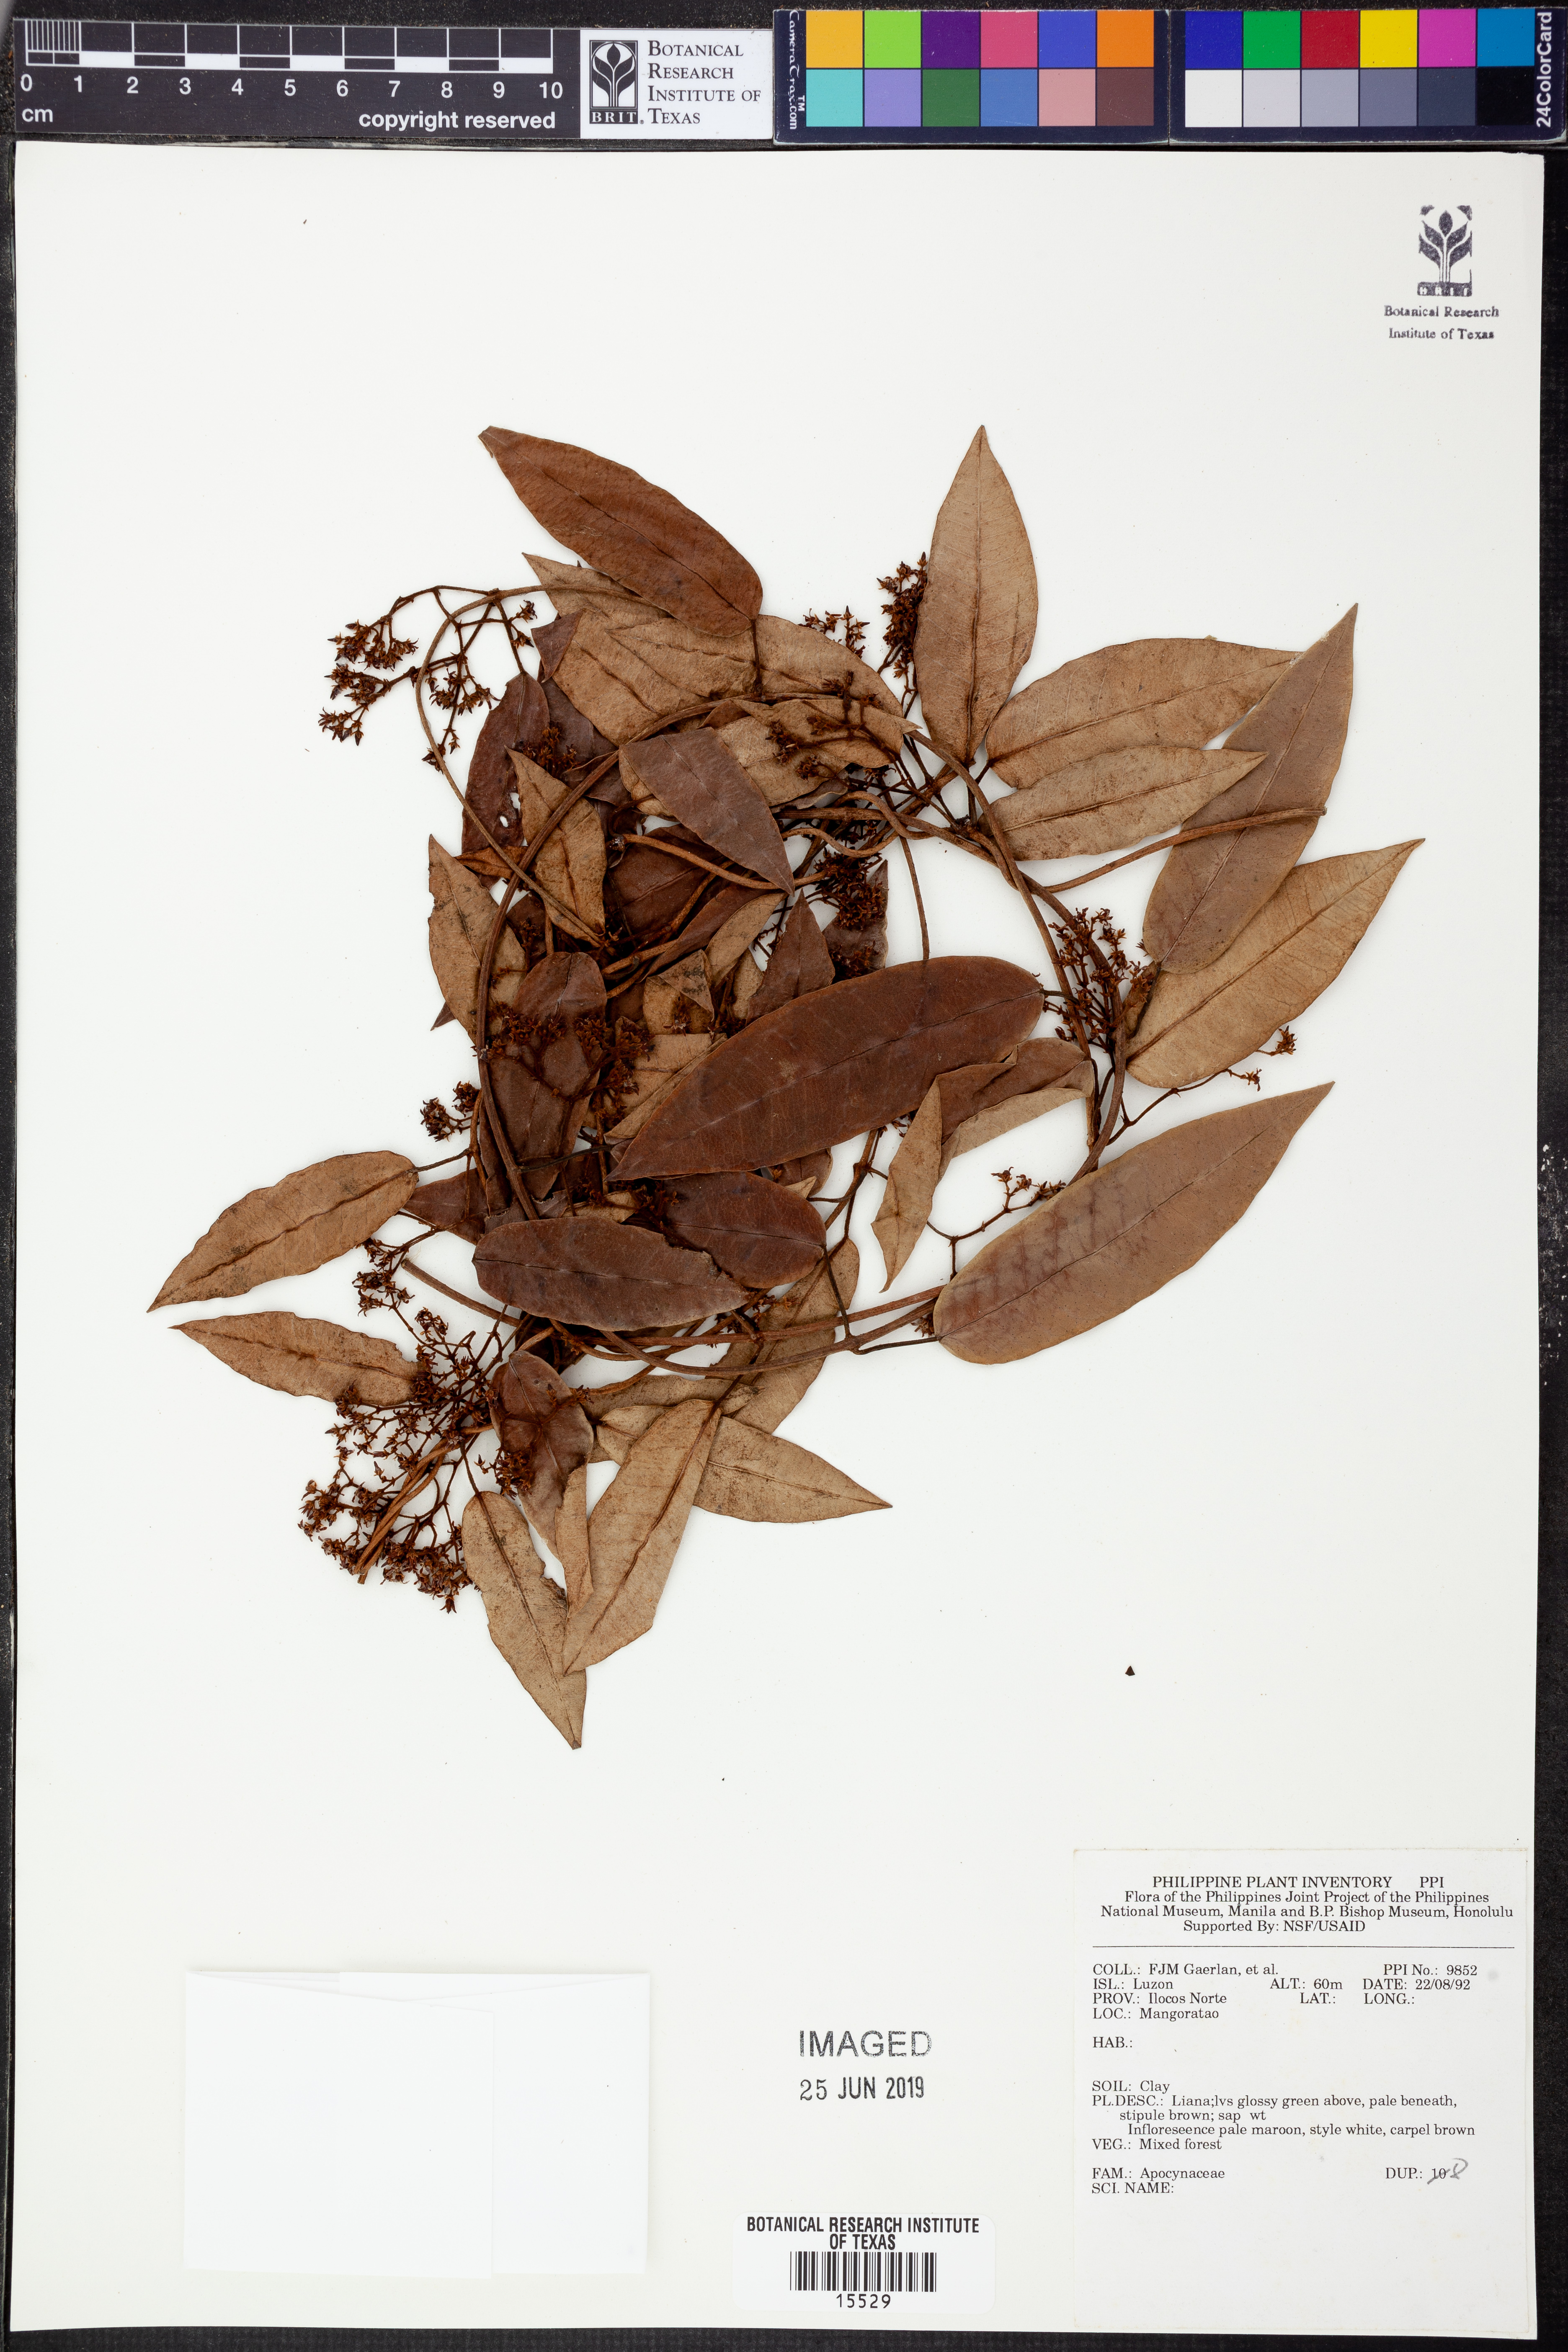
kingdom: Plantae
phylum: Tracheophyta
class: Magnoliopsida
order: Gentianales
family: Apocynaceae
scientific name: Apocynaceae
